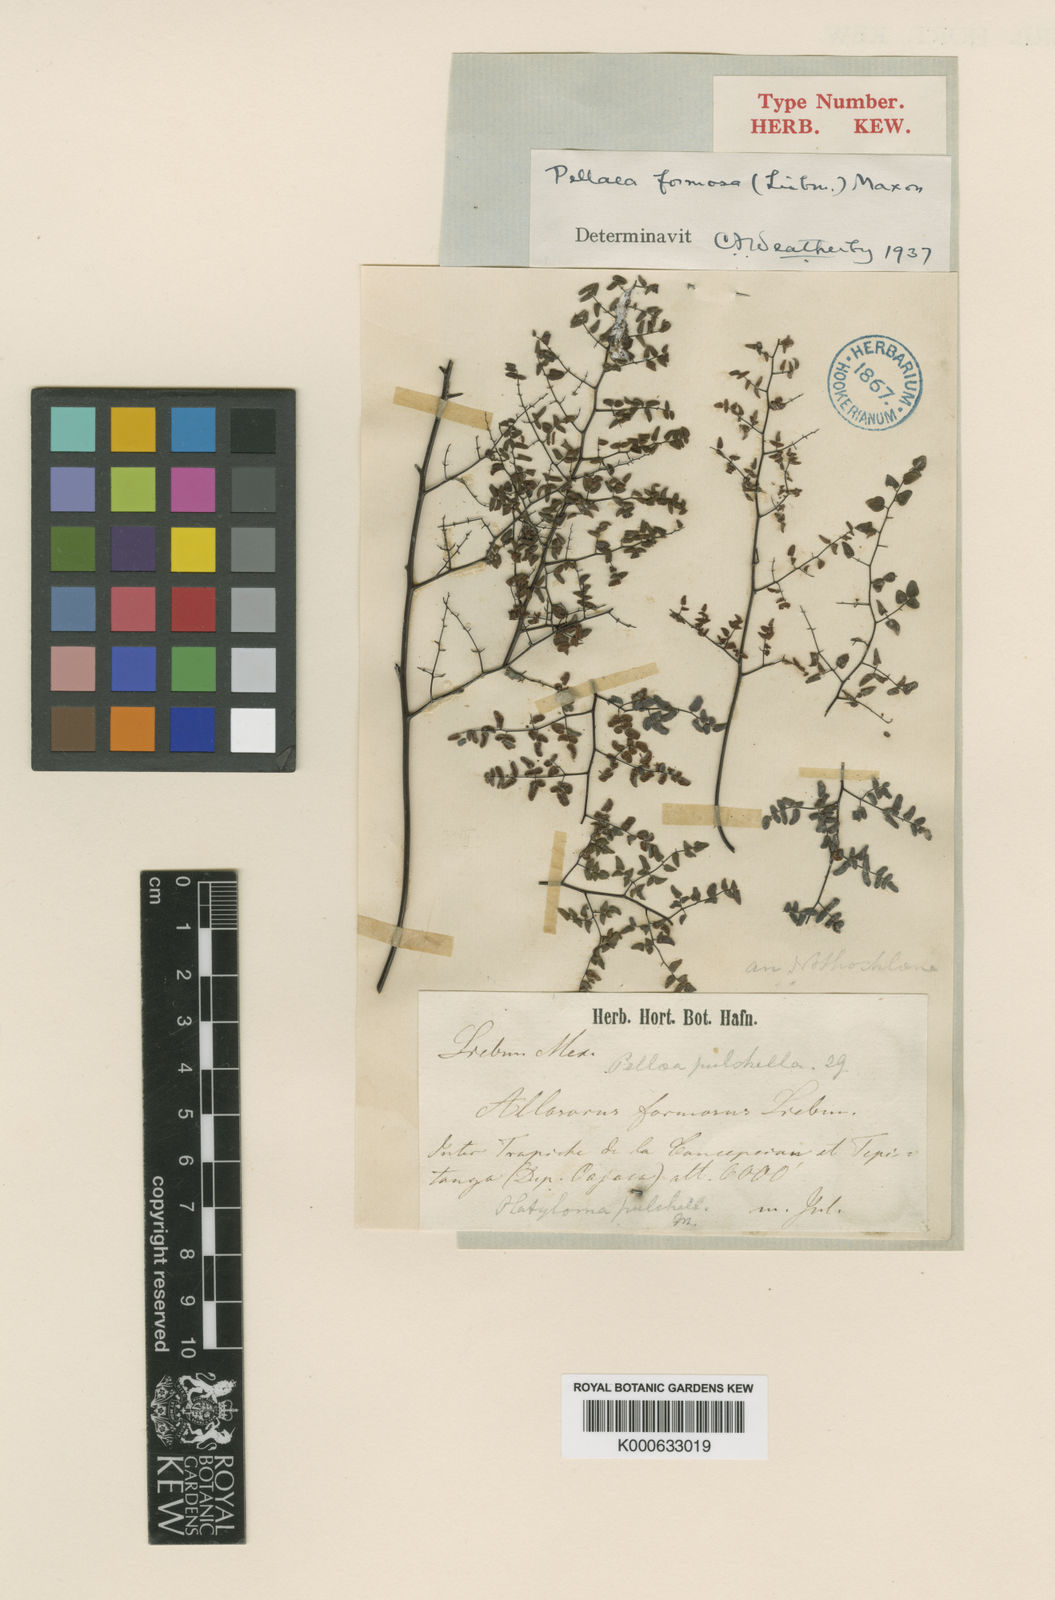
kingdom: Plantae
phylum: Tracheophyta
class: Polypodiopsida
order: Polypodiales
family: Pteridaceae
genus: Argyrochosma
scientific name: Argyrochosma formosa
